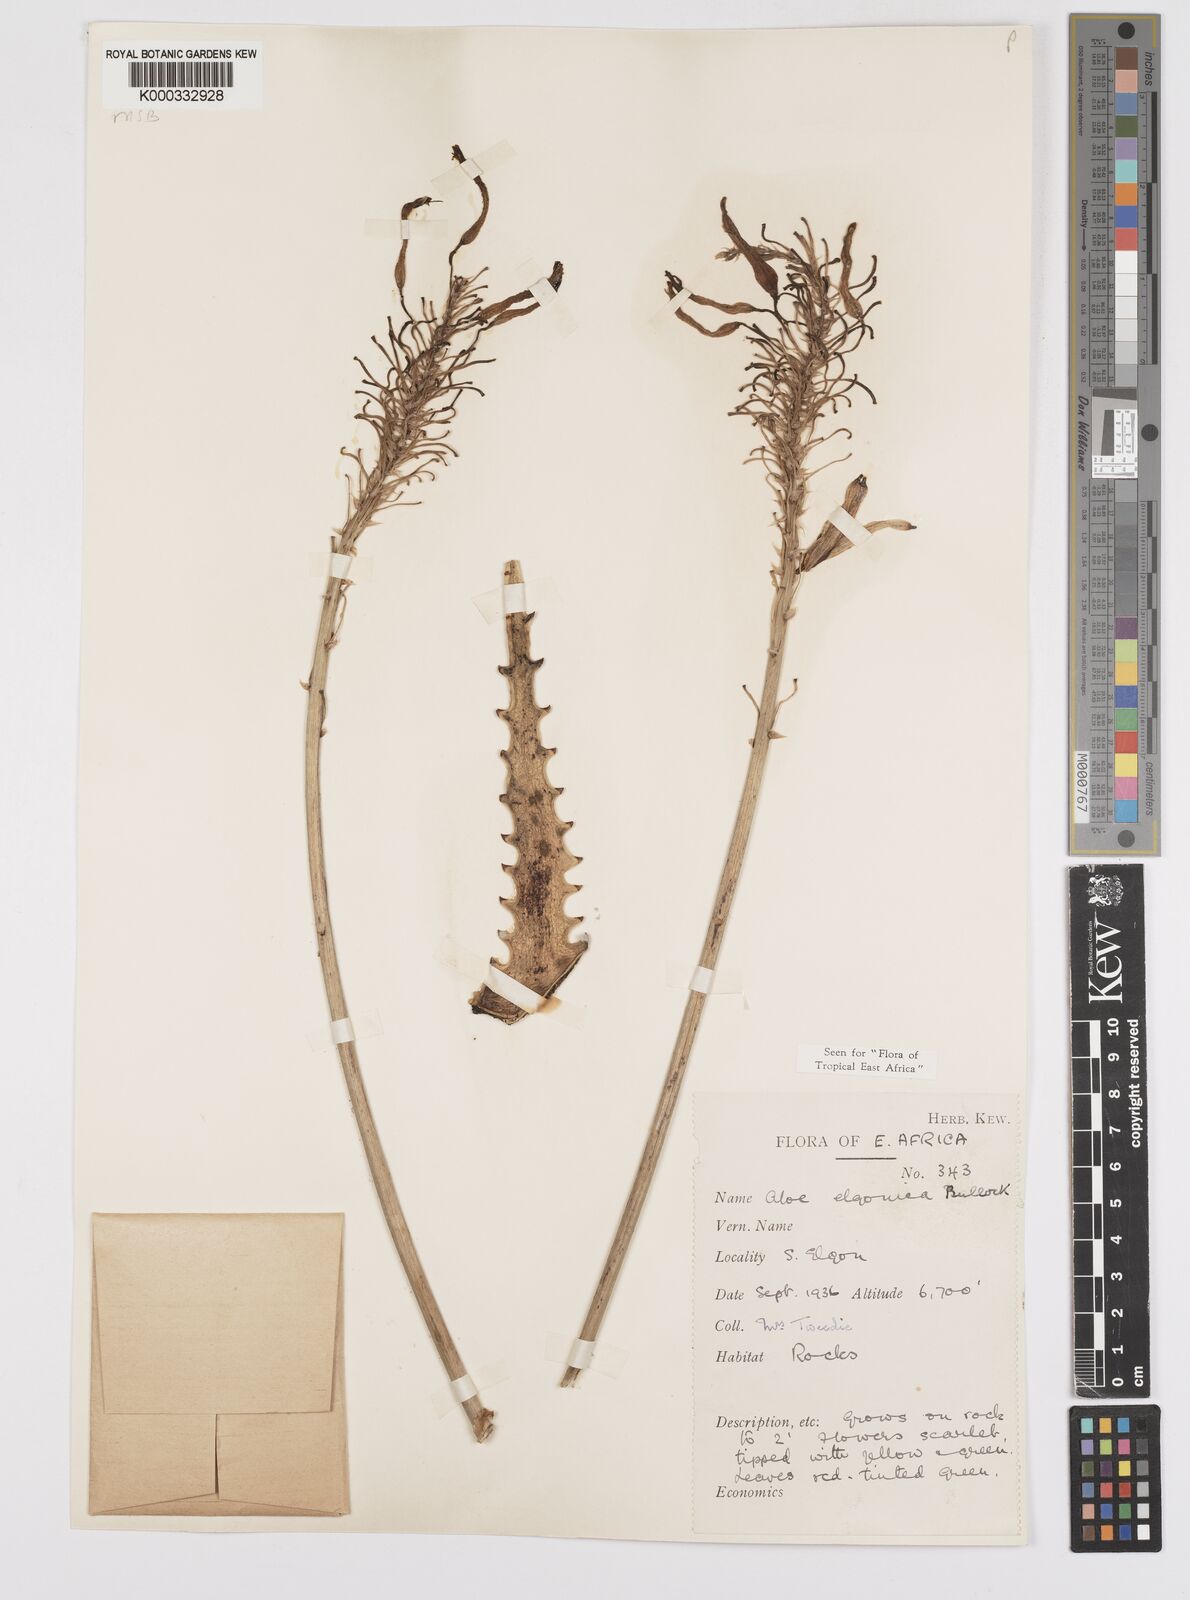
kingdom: Plantae
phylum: Tracheophyta
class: Liliopsida
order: Asparagales
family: Asphodelaceae
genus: Aloe
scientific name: Aloe elgonica
